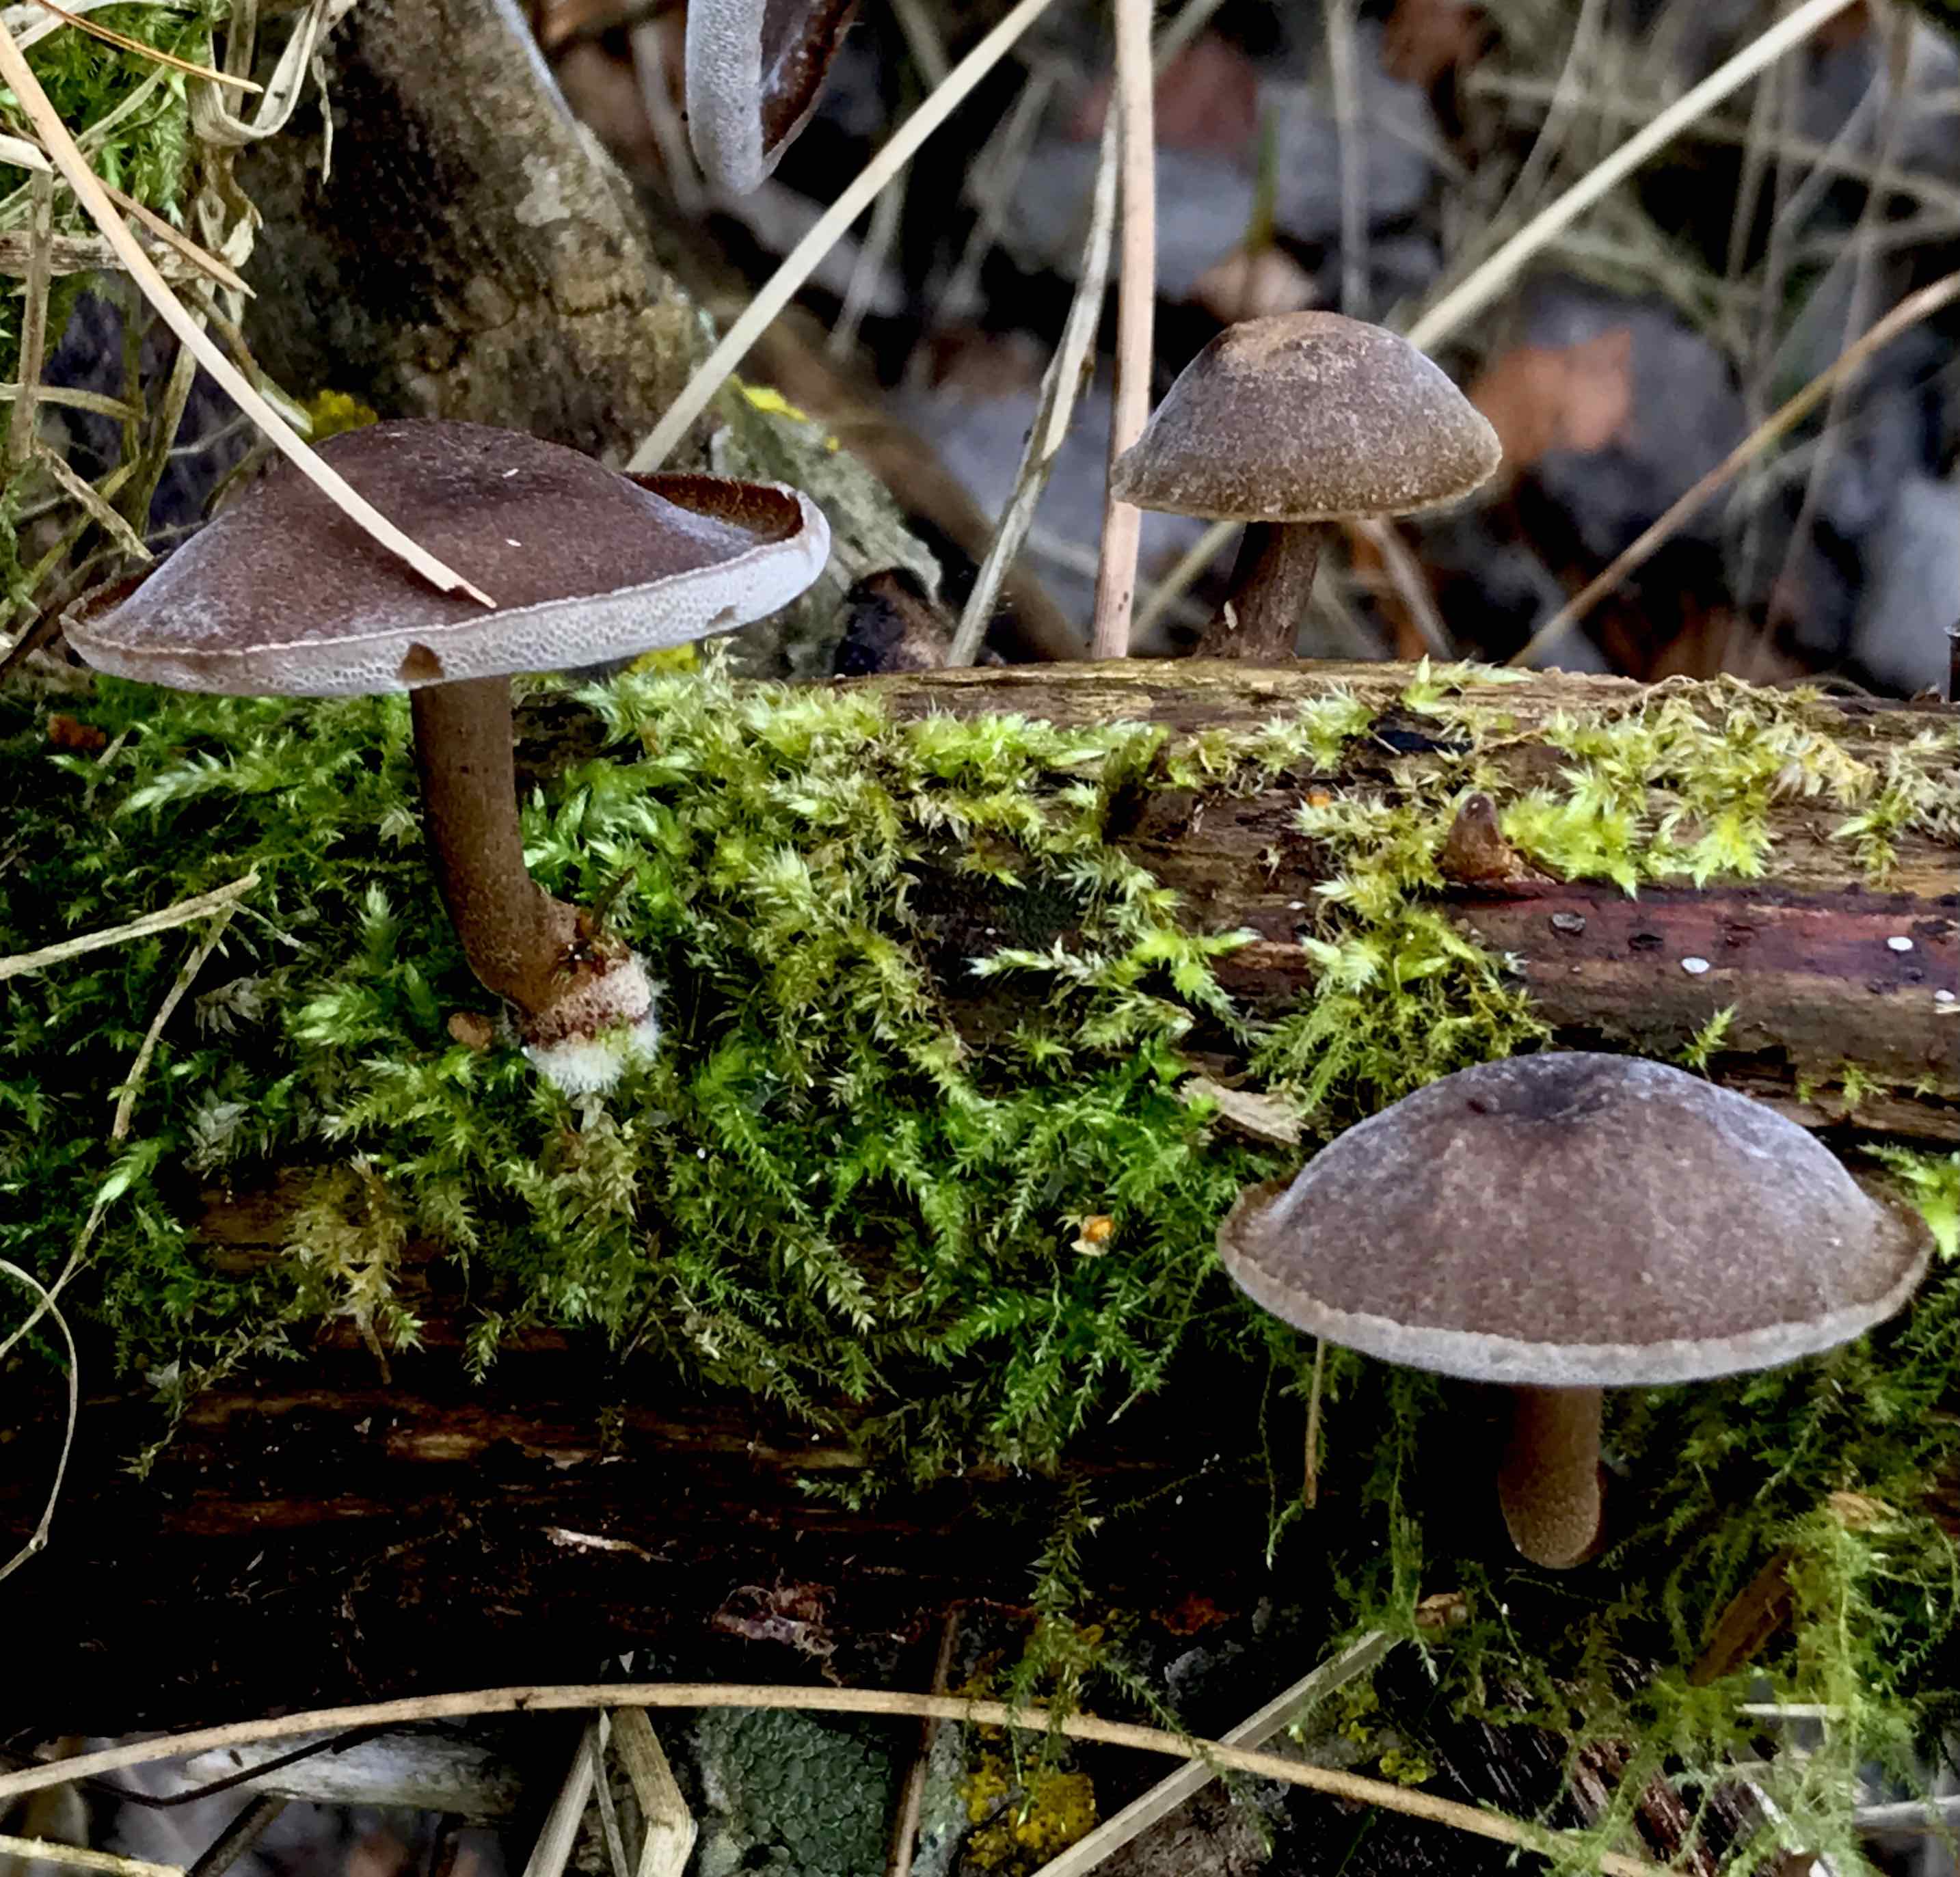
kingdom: Fungi
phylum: Basidiomycota
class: Agaricomycetes
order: Polyporales
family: Polyporaceae
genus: Lentinus
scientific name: Lentinus brumalis
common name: vinter-stilkporesvamp
